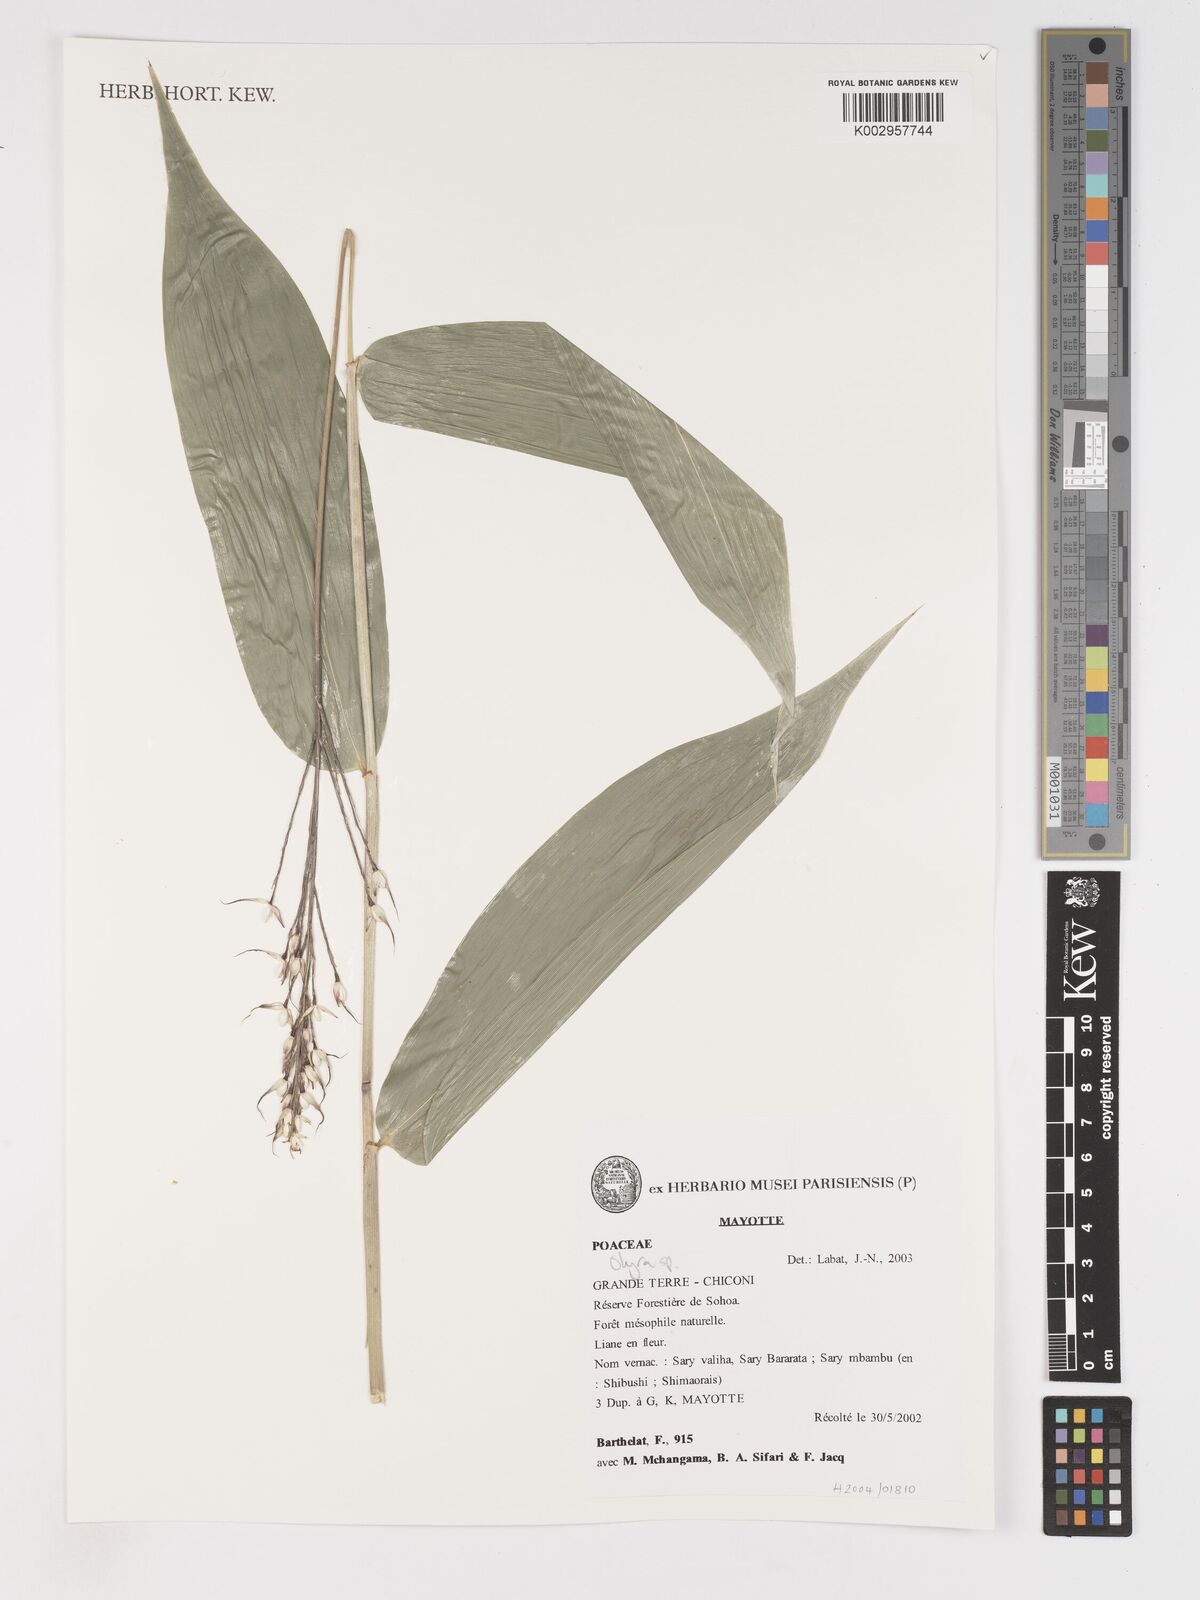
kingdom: Plantae
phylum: Tracheophyta
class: Liliopsida
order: Poales
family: Poaceae
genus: Olyra
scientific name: Olyra latifolia
